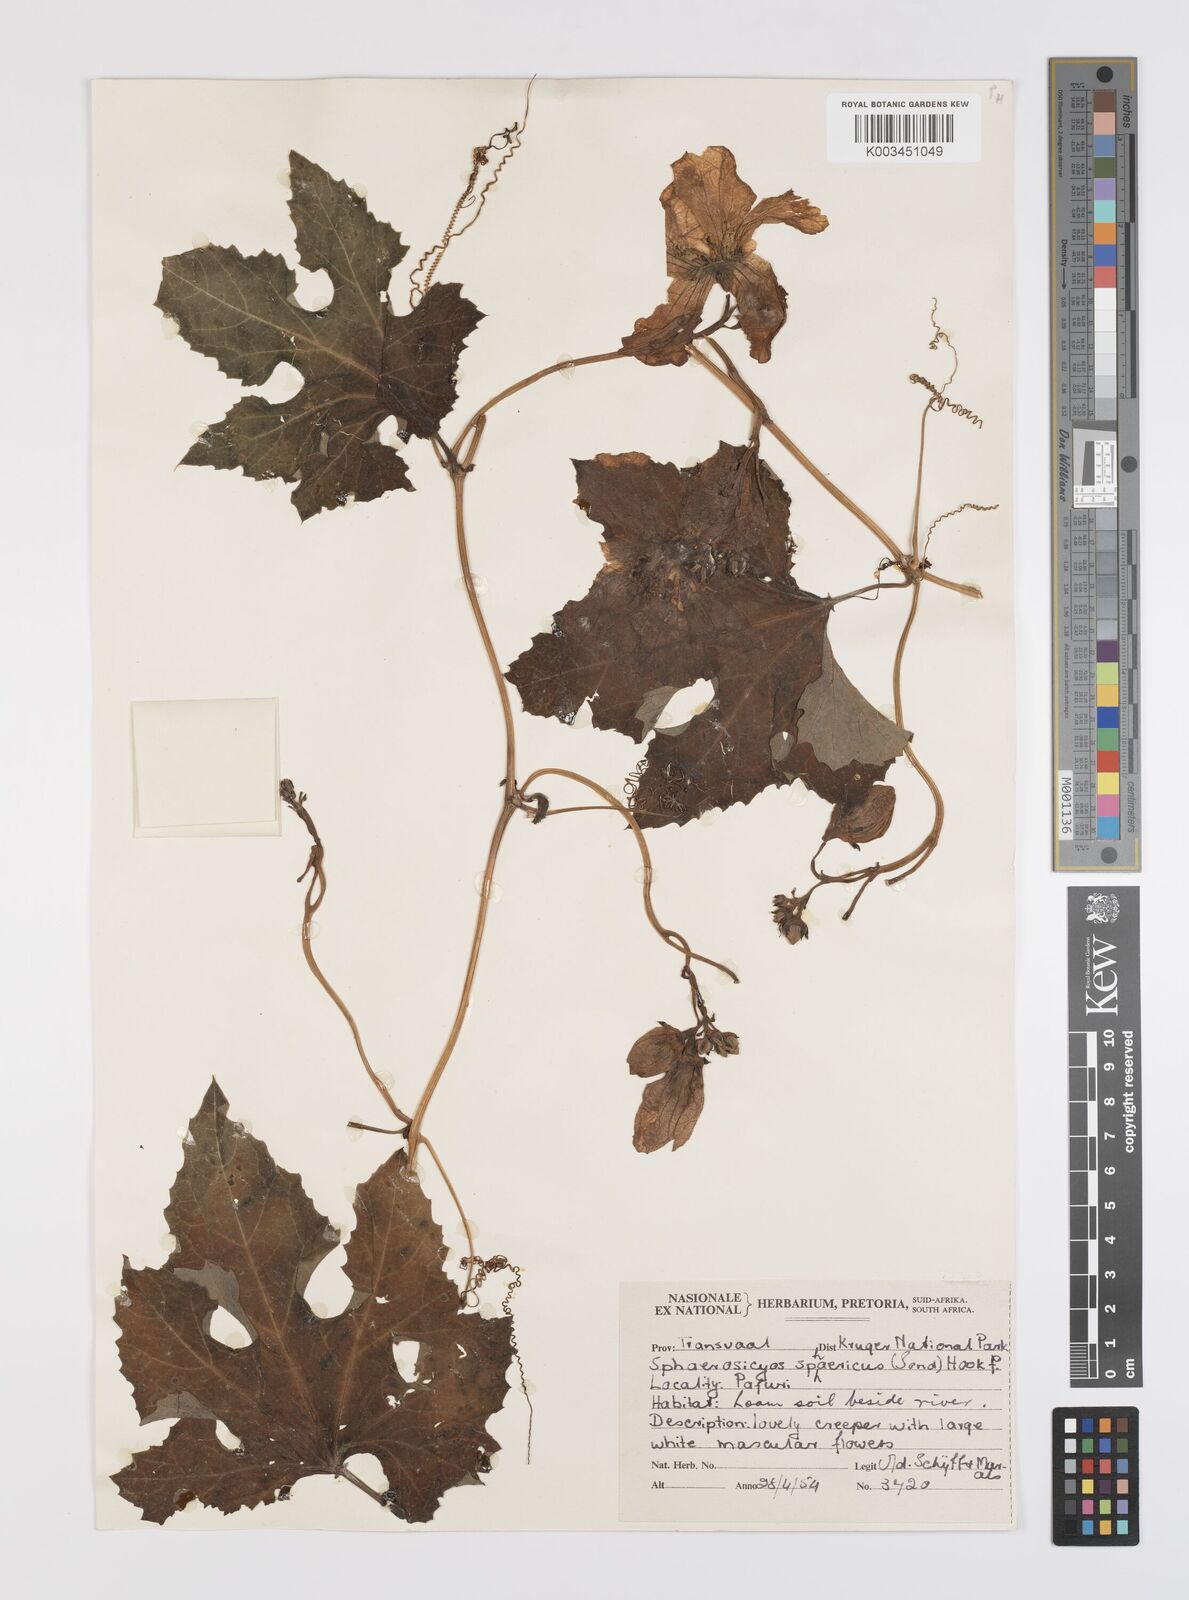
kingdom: Plantae
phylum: Tracheophyta
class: Magnoliopsida
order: Cucurbitales
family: Cucurbitaceae
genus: Lagenaria
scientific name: Lagenaria sphaerica
